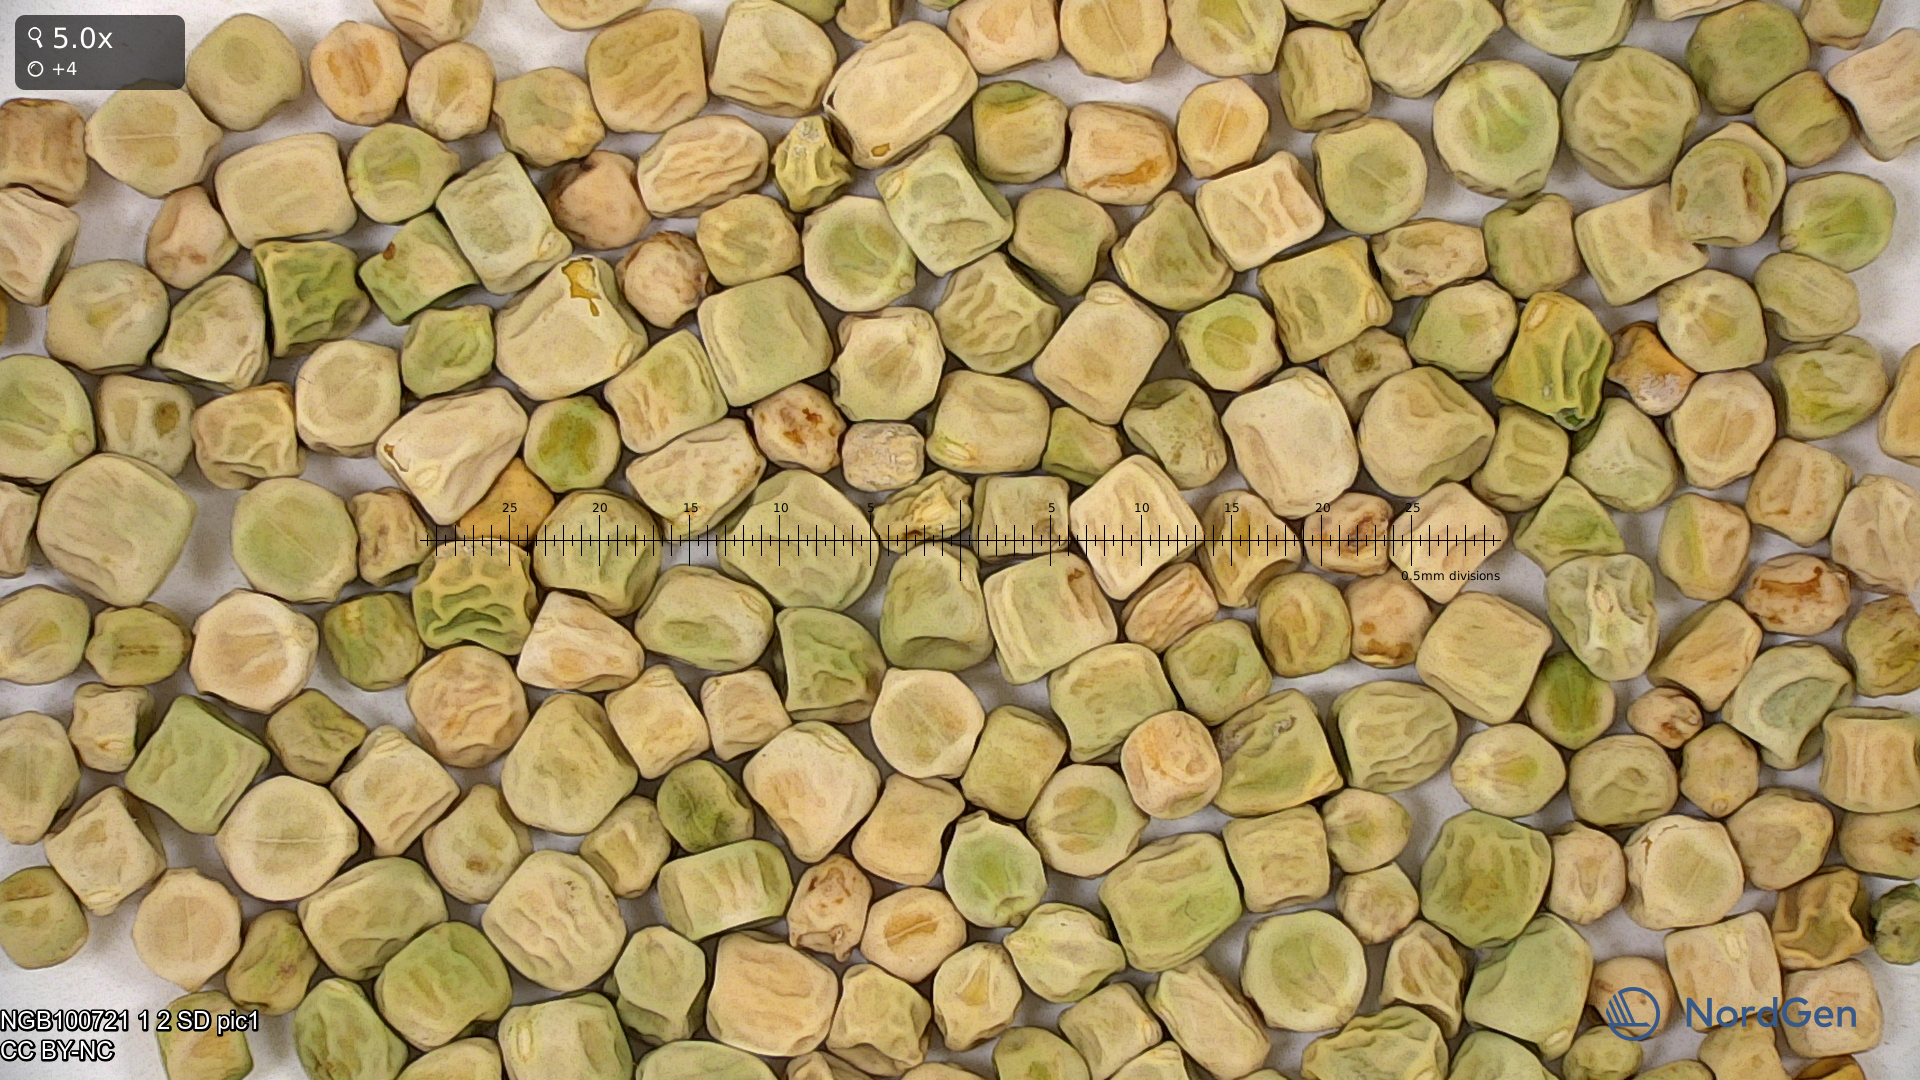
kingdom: Plantae
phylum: Tracheophyta
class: Magnoliopsida
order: Fabales
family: Fabaceae
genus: Lathyrus
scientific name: Lathyrus oleraceus
